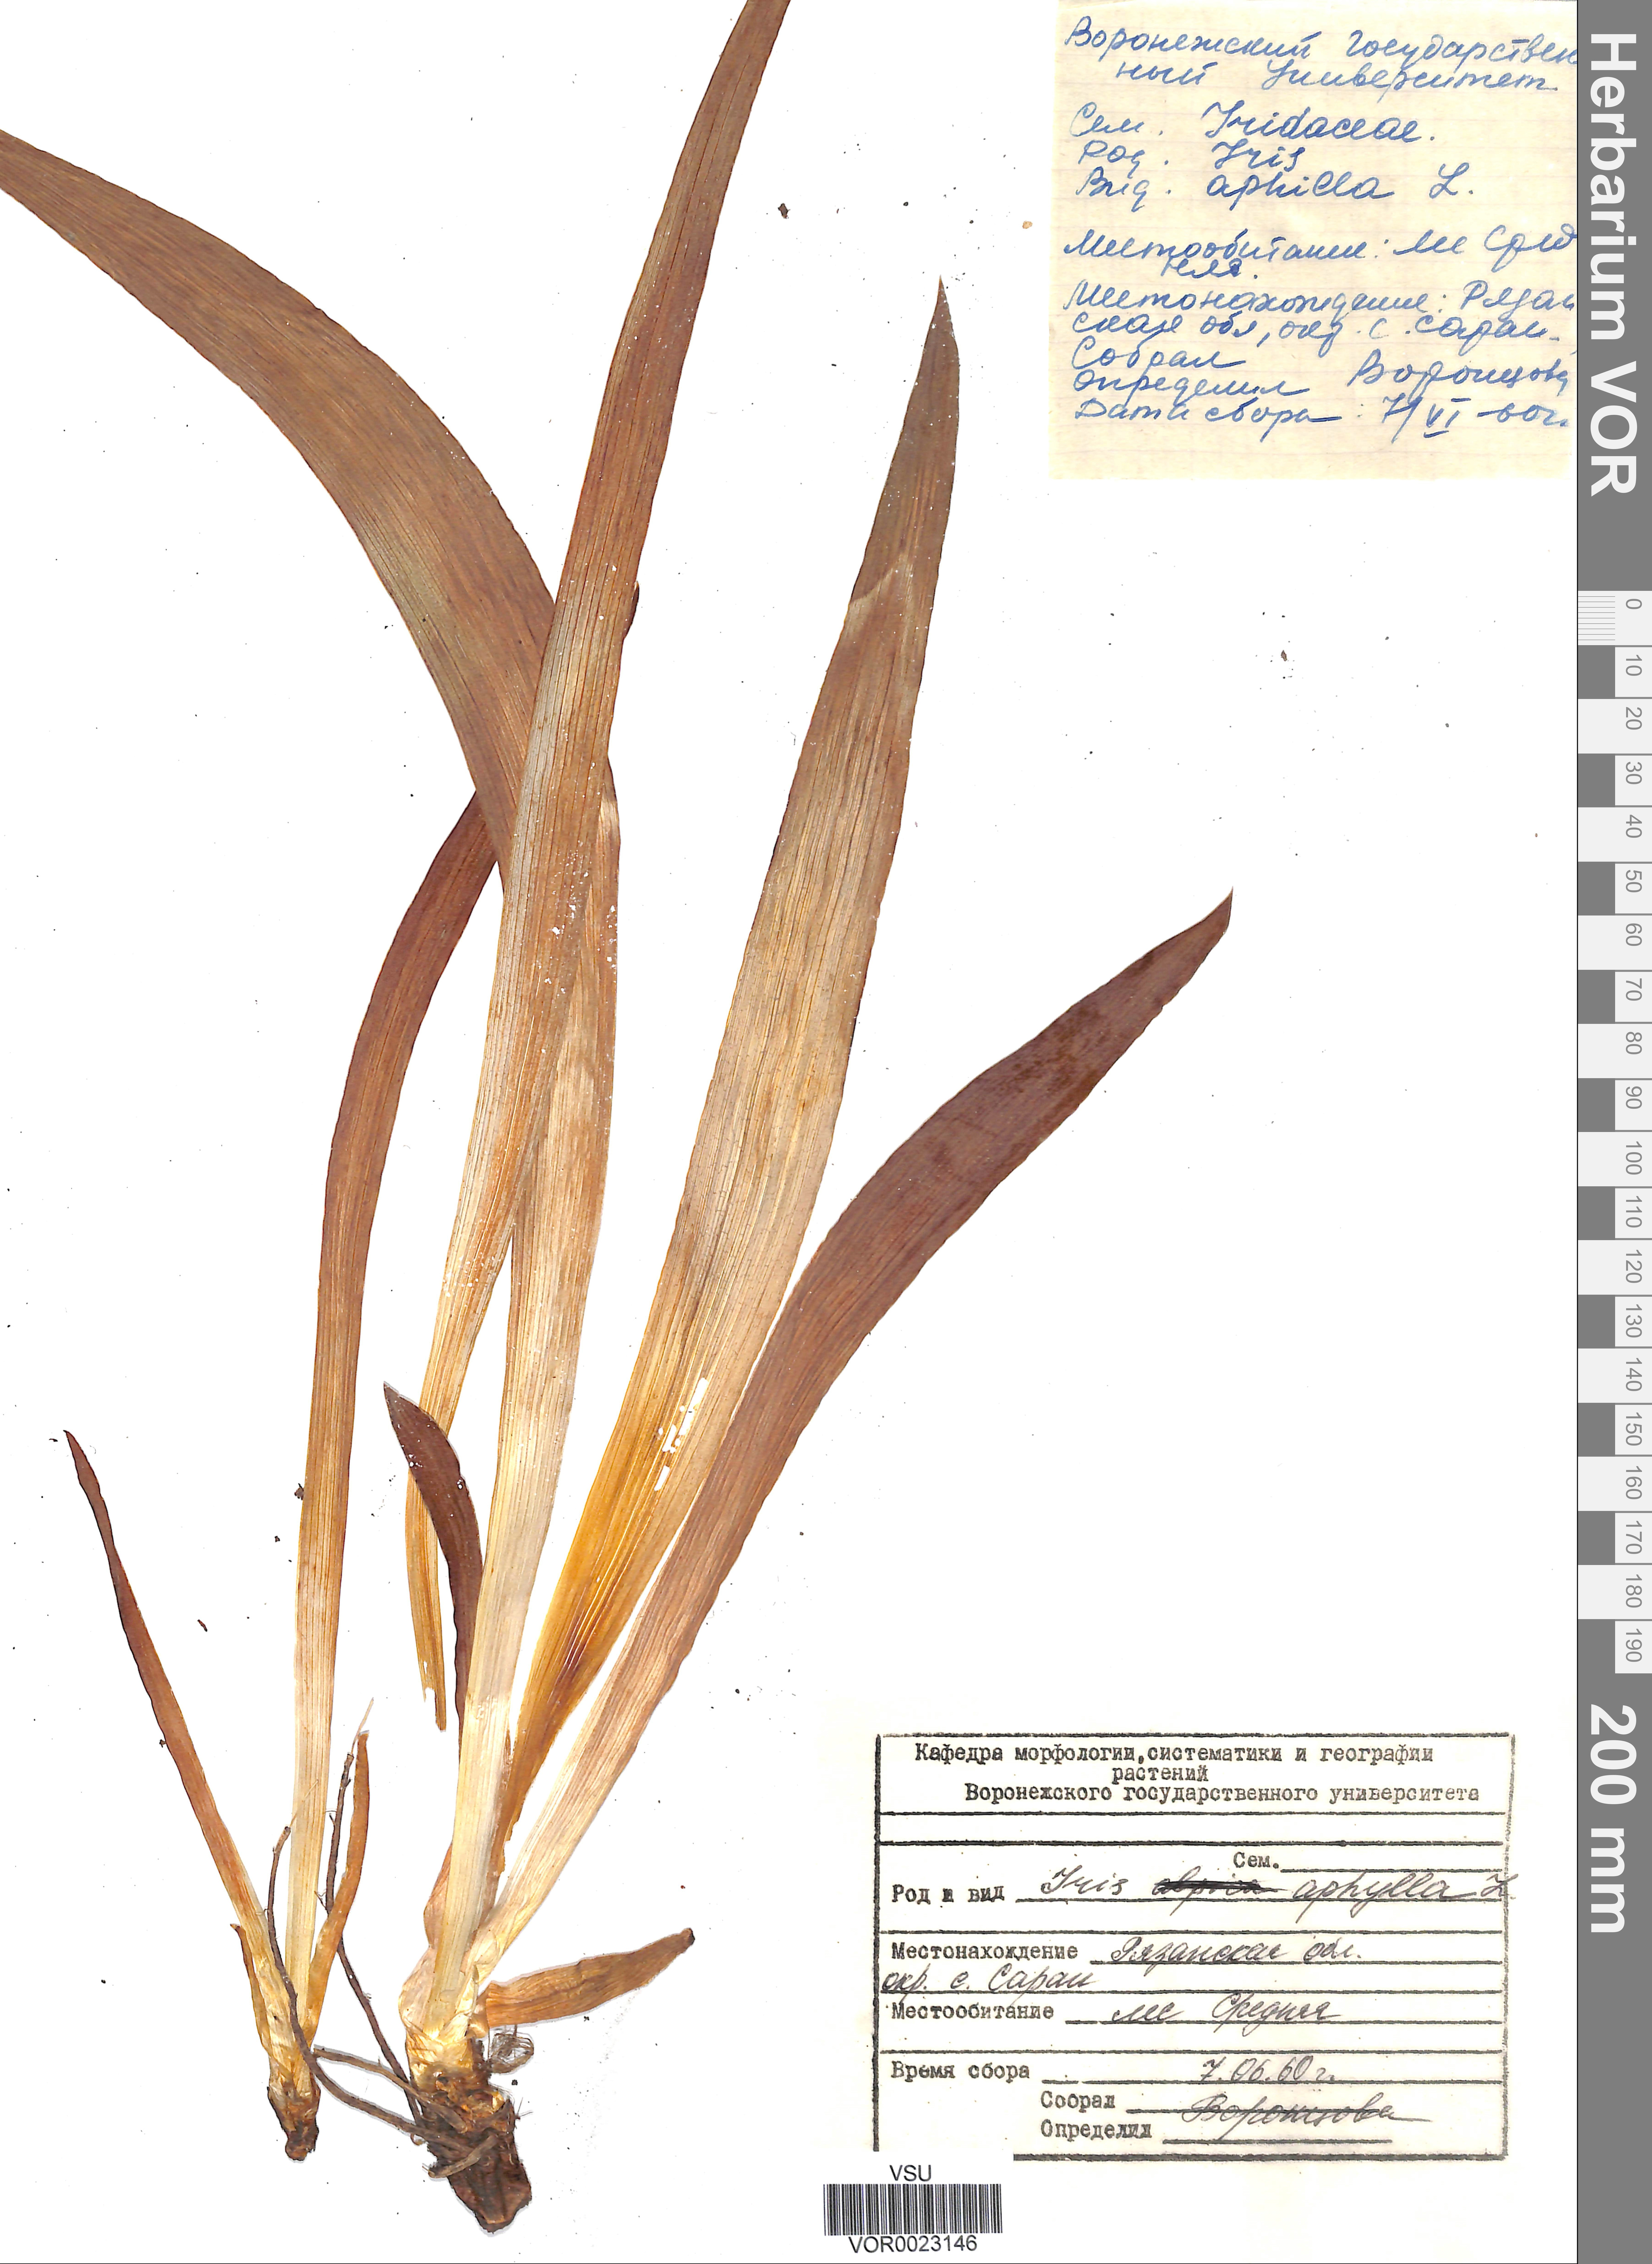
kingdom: Plantae
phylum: Tracheophyta
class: Liliopsida
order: Asparagales
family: Iridaceae
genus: Iris
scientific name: Iris aphylla
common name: Stool iris
